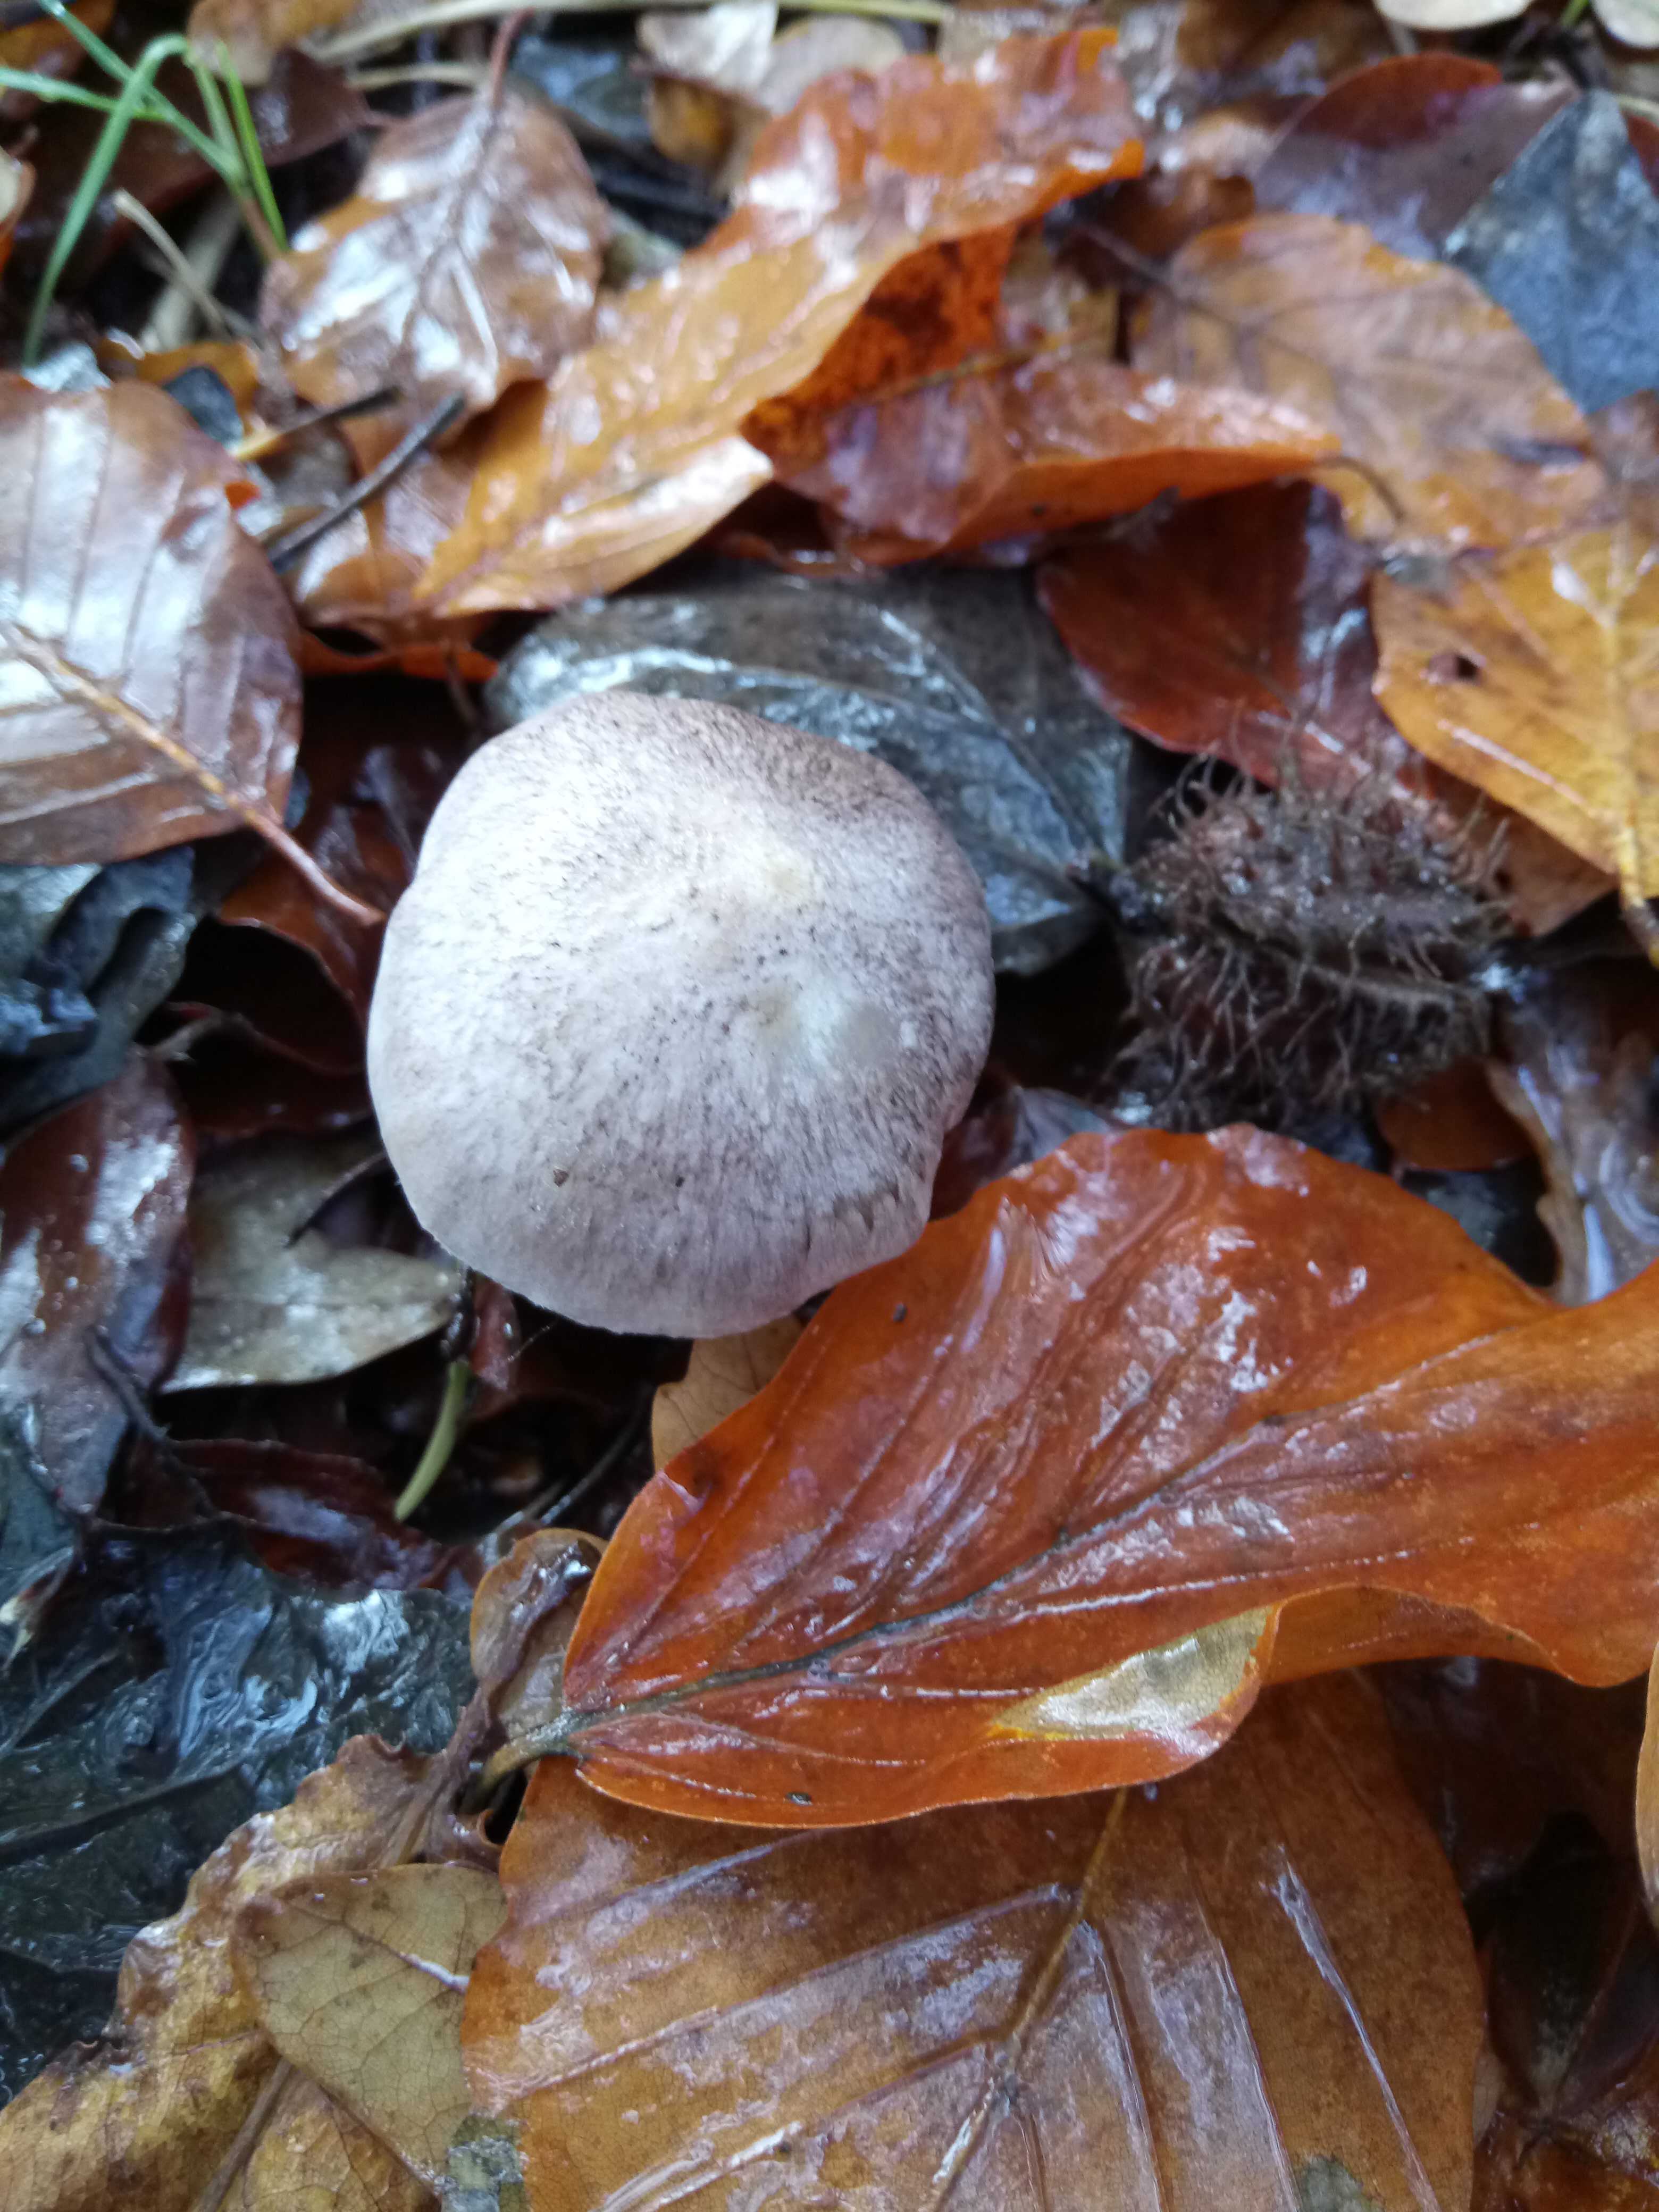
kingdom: Fungi
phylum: Basidiomycota
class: Agaricomycetes
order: Agaricales
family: Tricholomataceae
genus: Tricholoma
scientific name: Tricholoma
